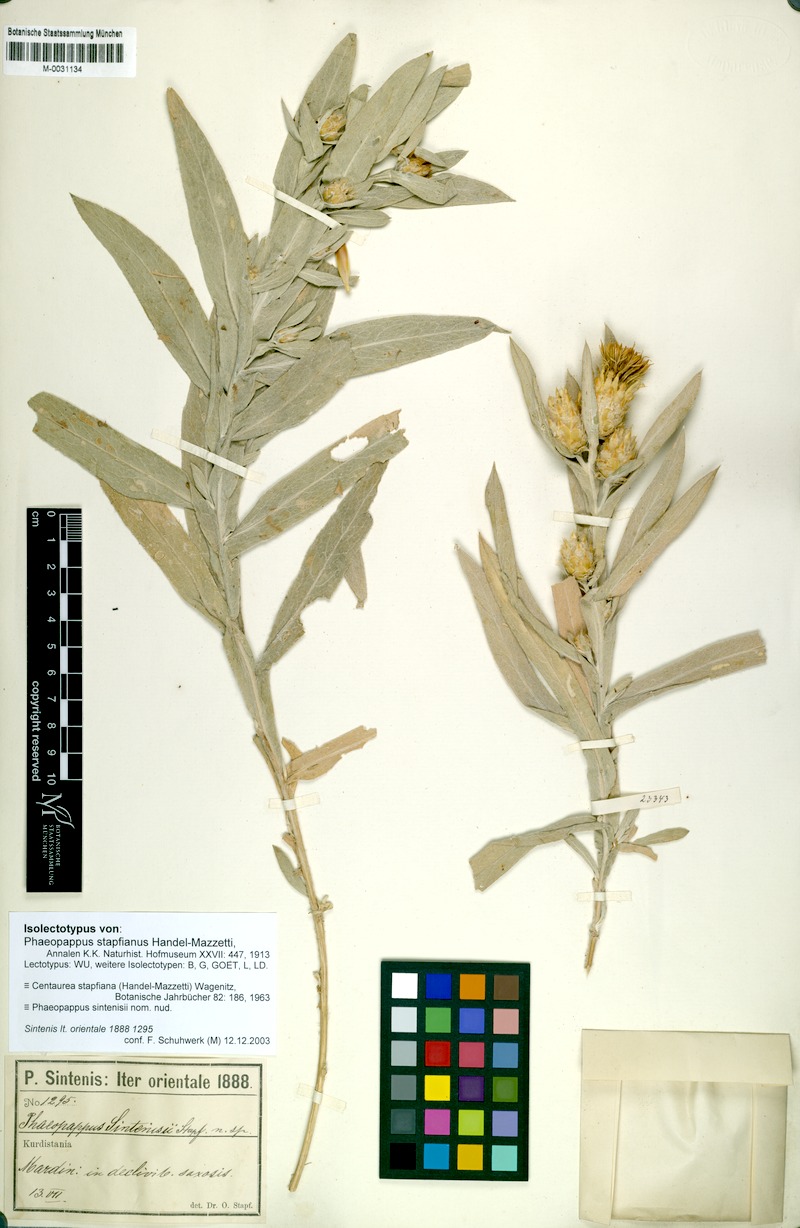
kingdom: Plantae
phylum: Tracheophyta
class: Magnoliopsida
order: Asterales
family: Asteraceae
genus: Centaurea
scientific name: Centaurea stapfiana
